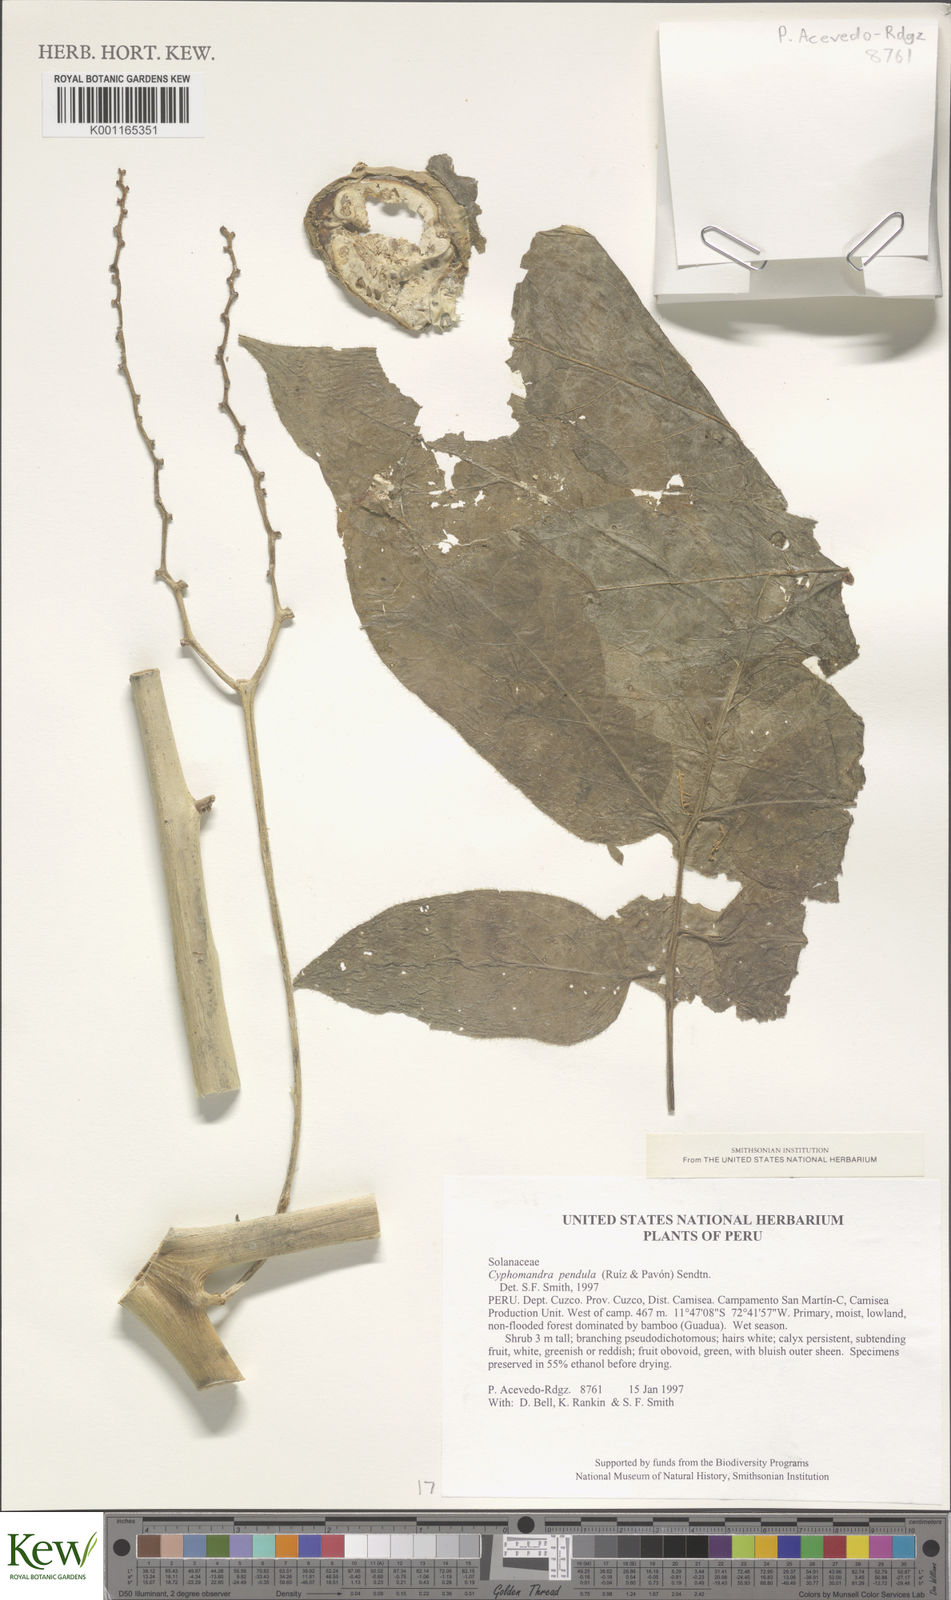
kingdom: Plantae
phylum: Tracheophyta
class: Magnoliopsida
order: Solanales
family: Solanaceae
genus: Solanum
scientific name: Solanum pendulum
